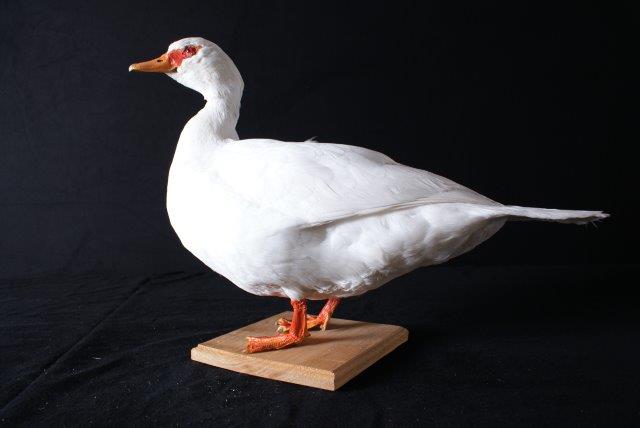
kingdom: Animalia
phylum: Chordata
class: Aves
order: Anseriformes
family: Anatidae
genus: Cairina
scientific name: Cairina moschata
